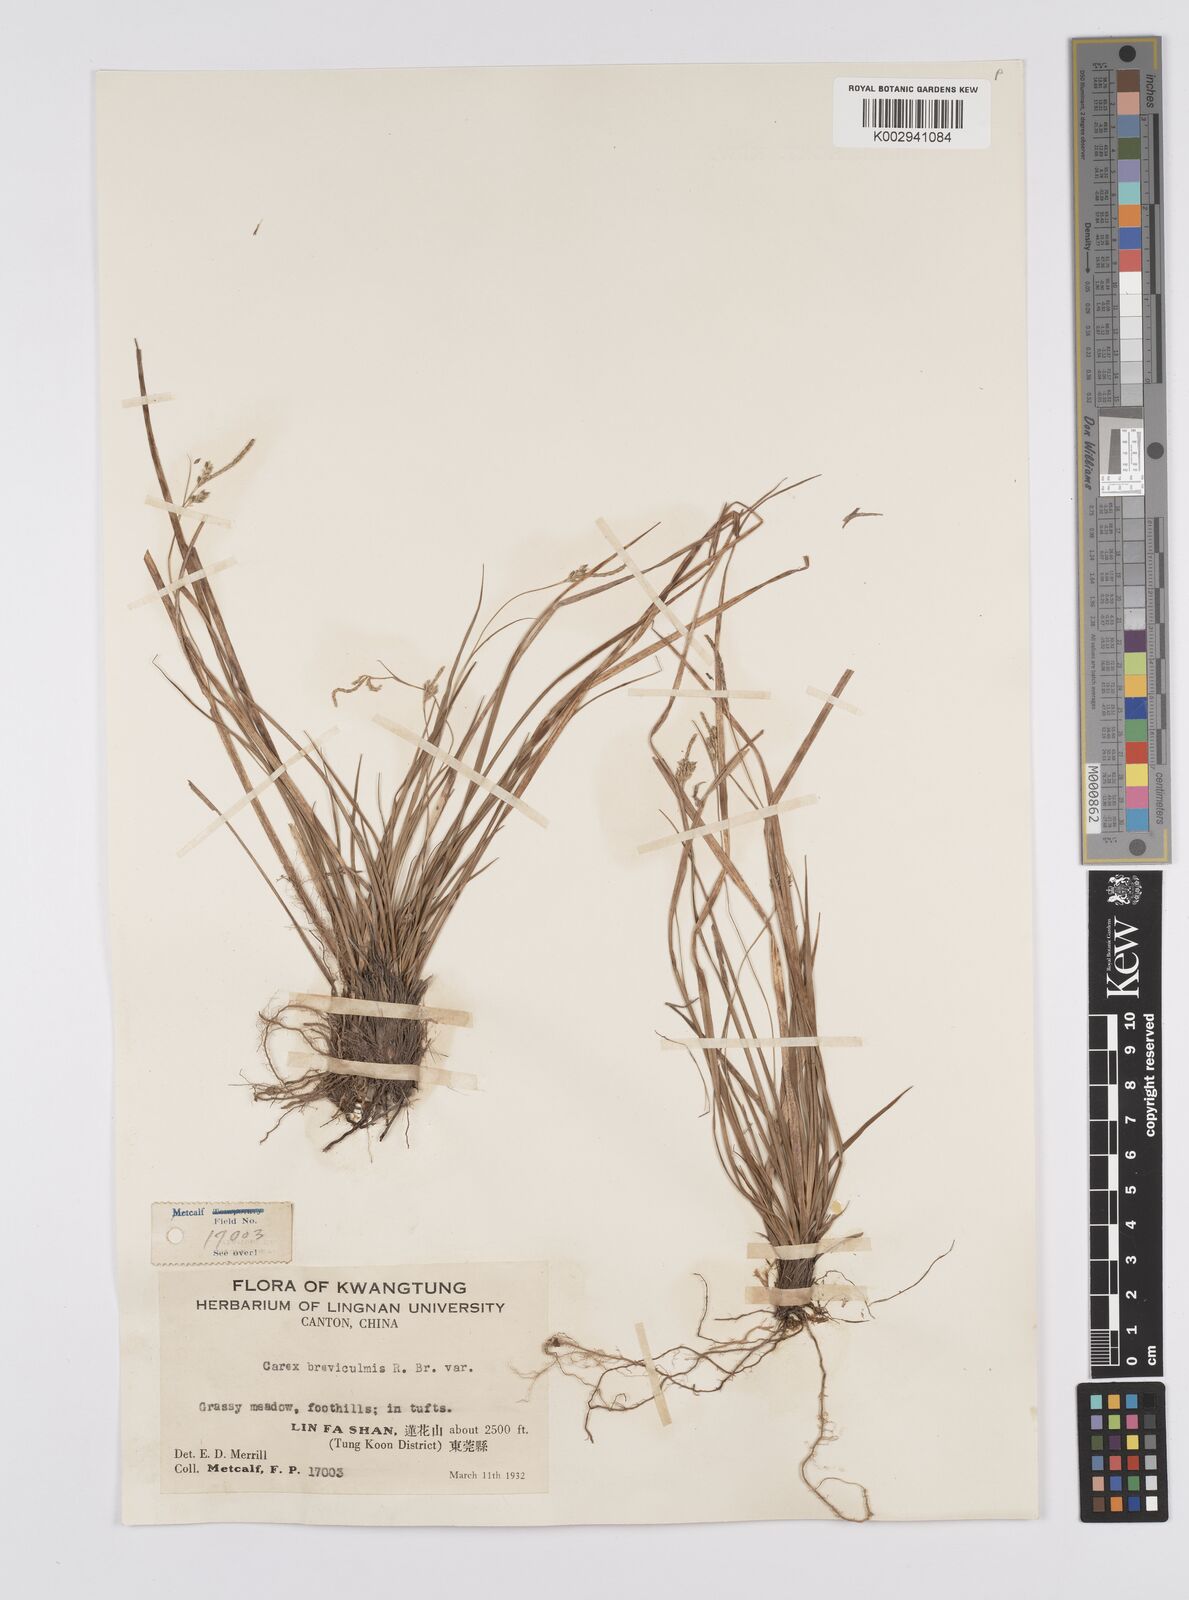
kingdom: Plantae
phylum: Tracheophyta
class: Liliopsida
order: Poales
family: Cyperaceae
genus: Carex
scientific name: Carex tristachya
